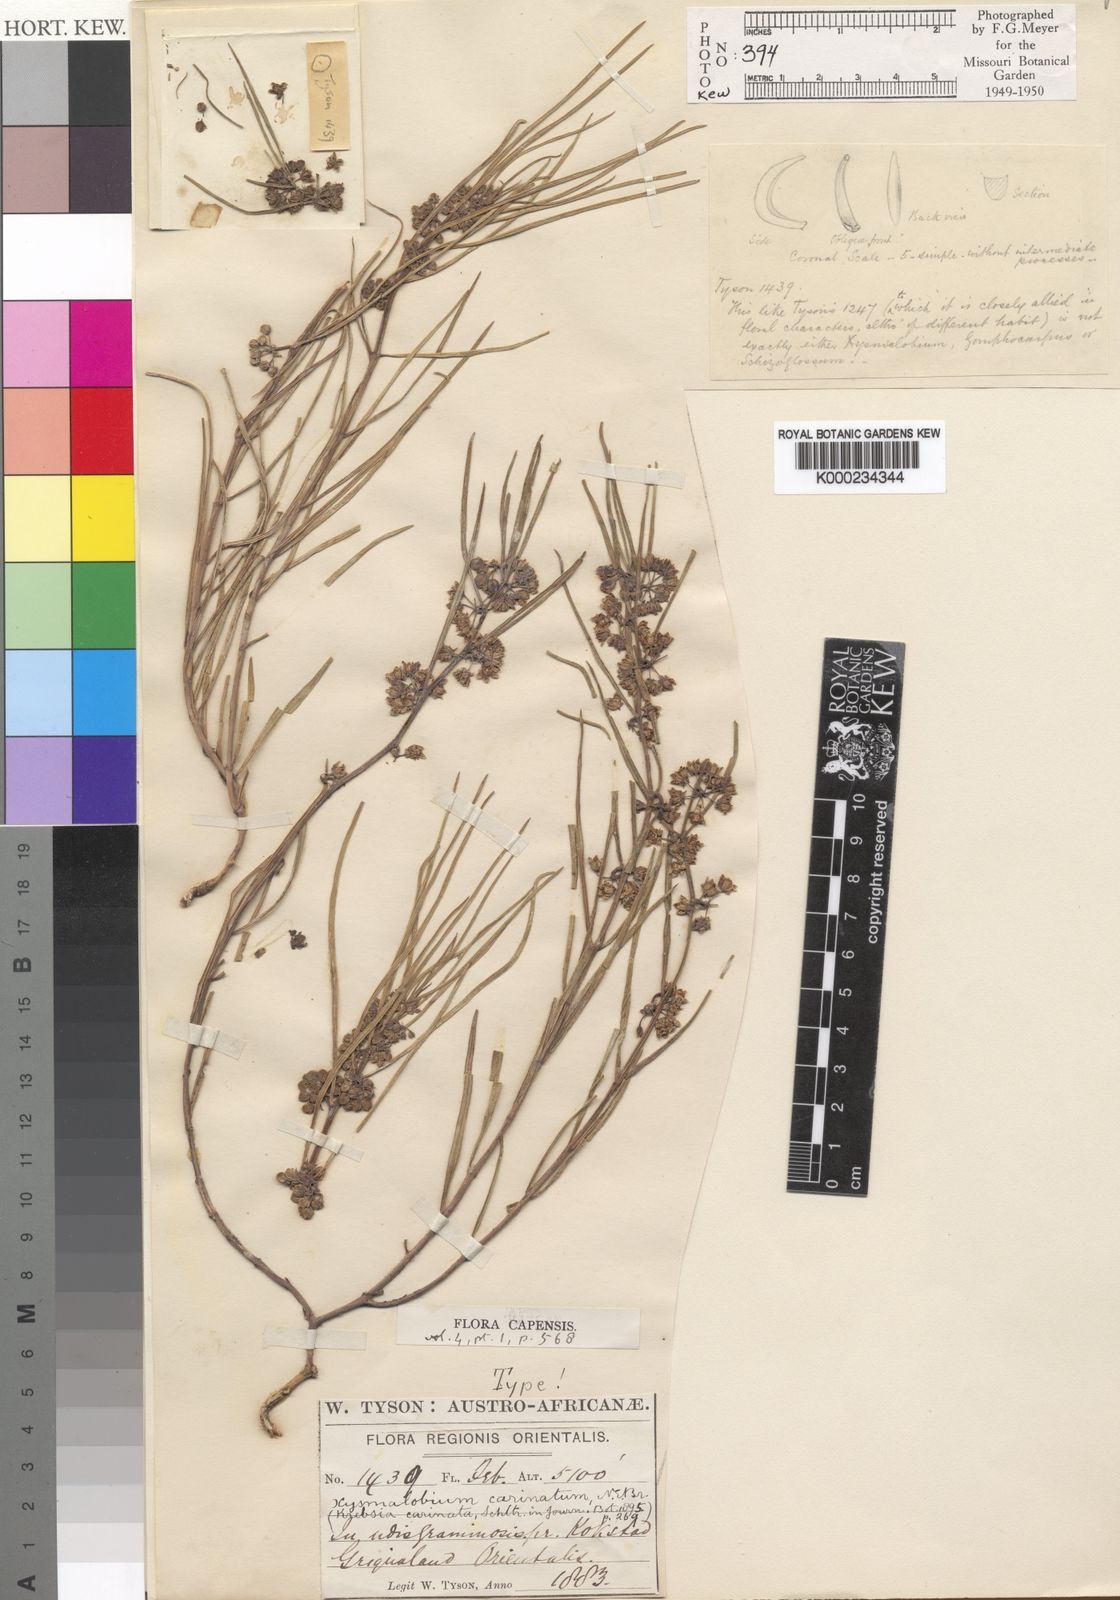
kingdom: Plantae
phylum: Tracheophyta
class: Magnoliopsida
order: Gentianales
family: Apocynaceae
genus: Stenostelma
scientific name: Stenostelma carinatum
